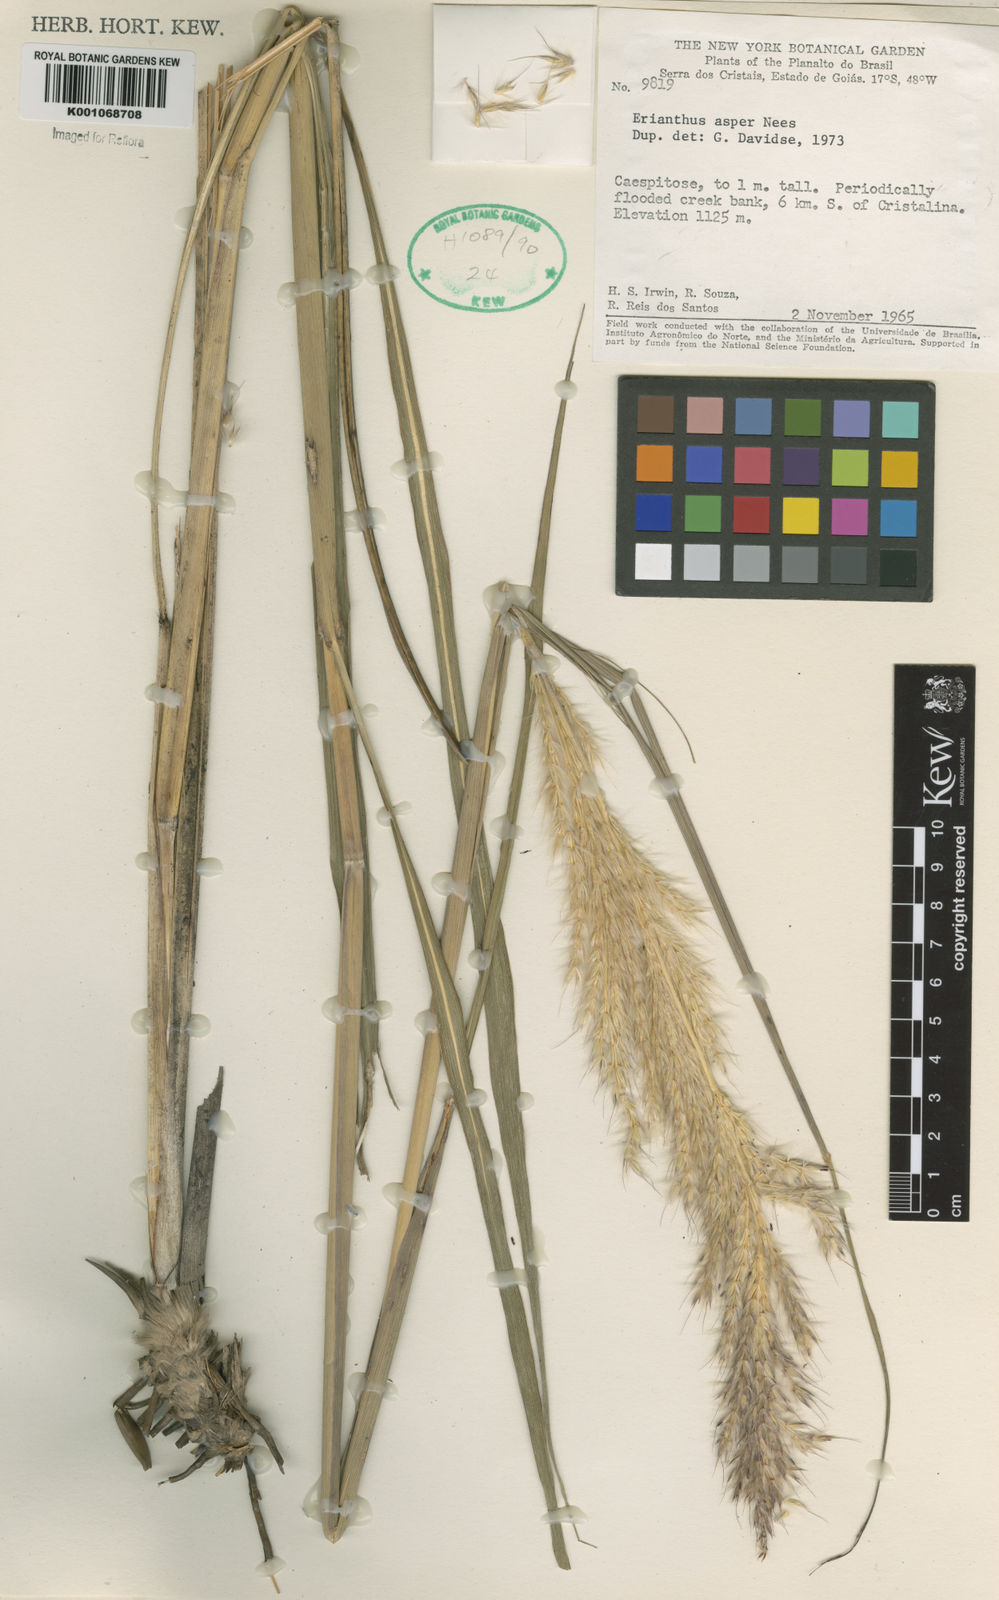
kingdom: Plantae
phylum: Tracheophyta
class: Liliopsida
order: Poales
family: Poaceae
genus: Erianthus
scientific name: Erianthus asper
